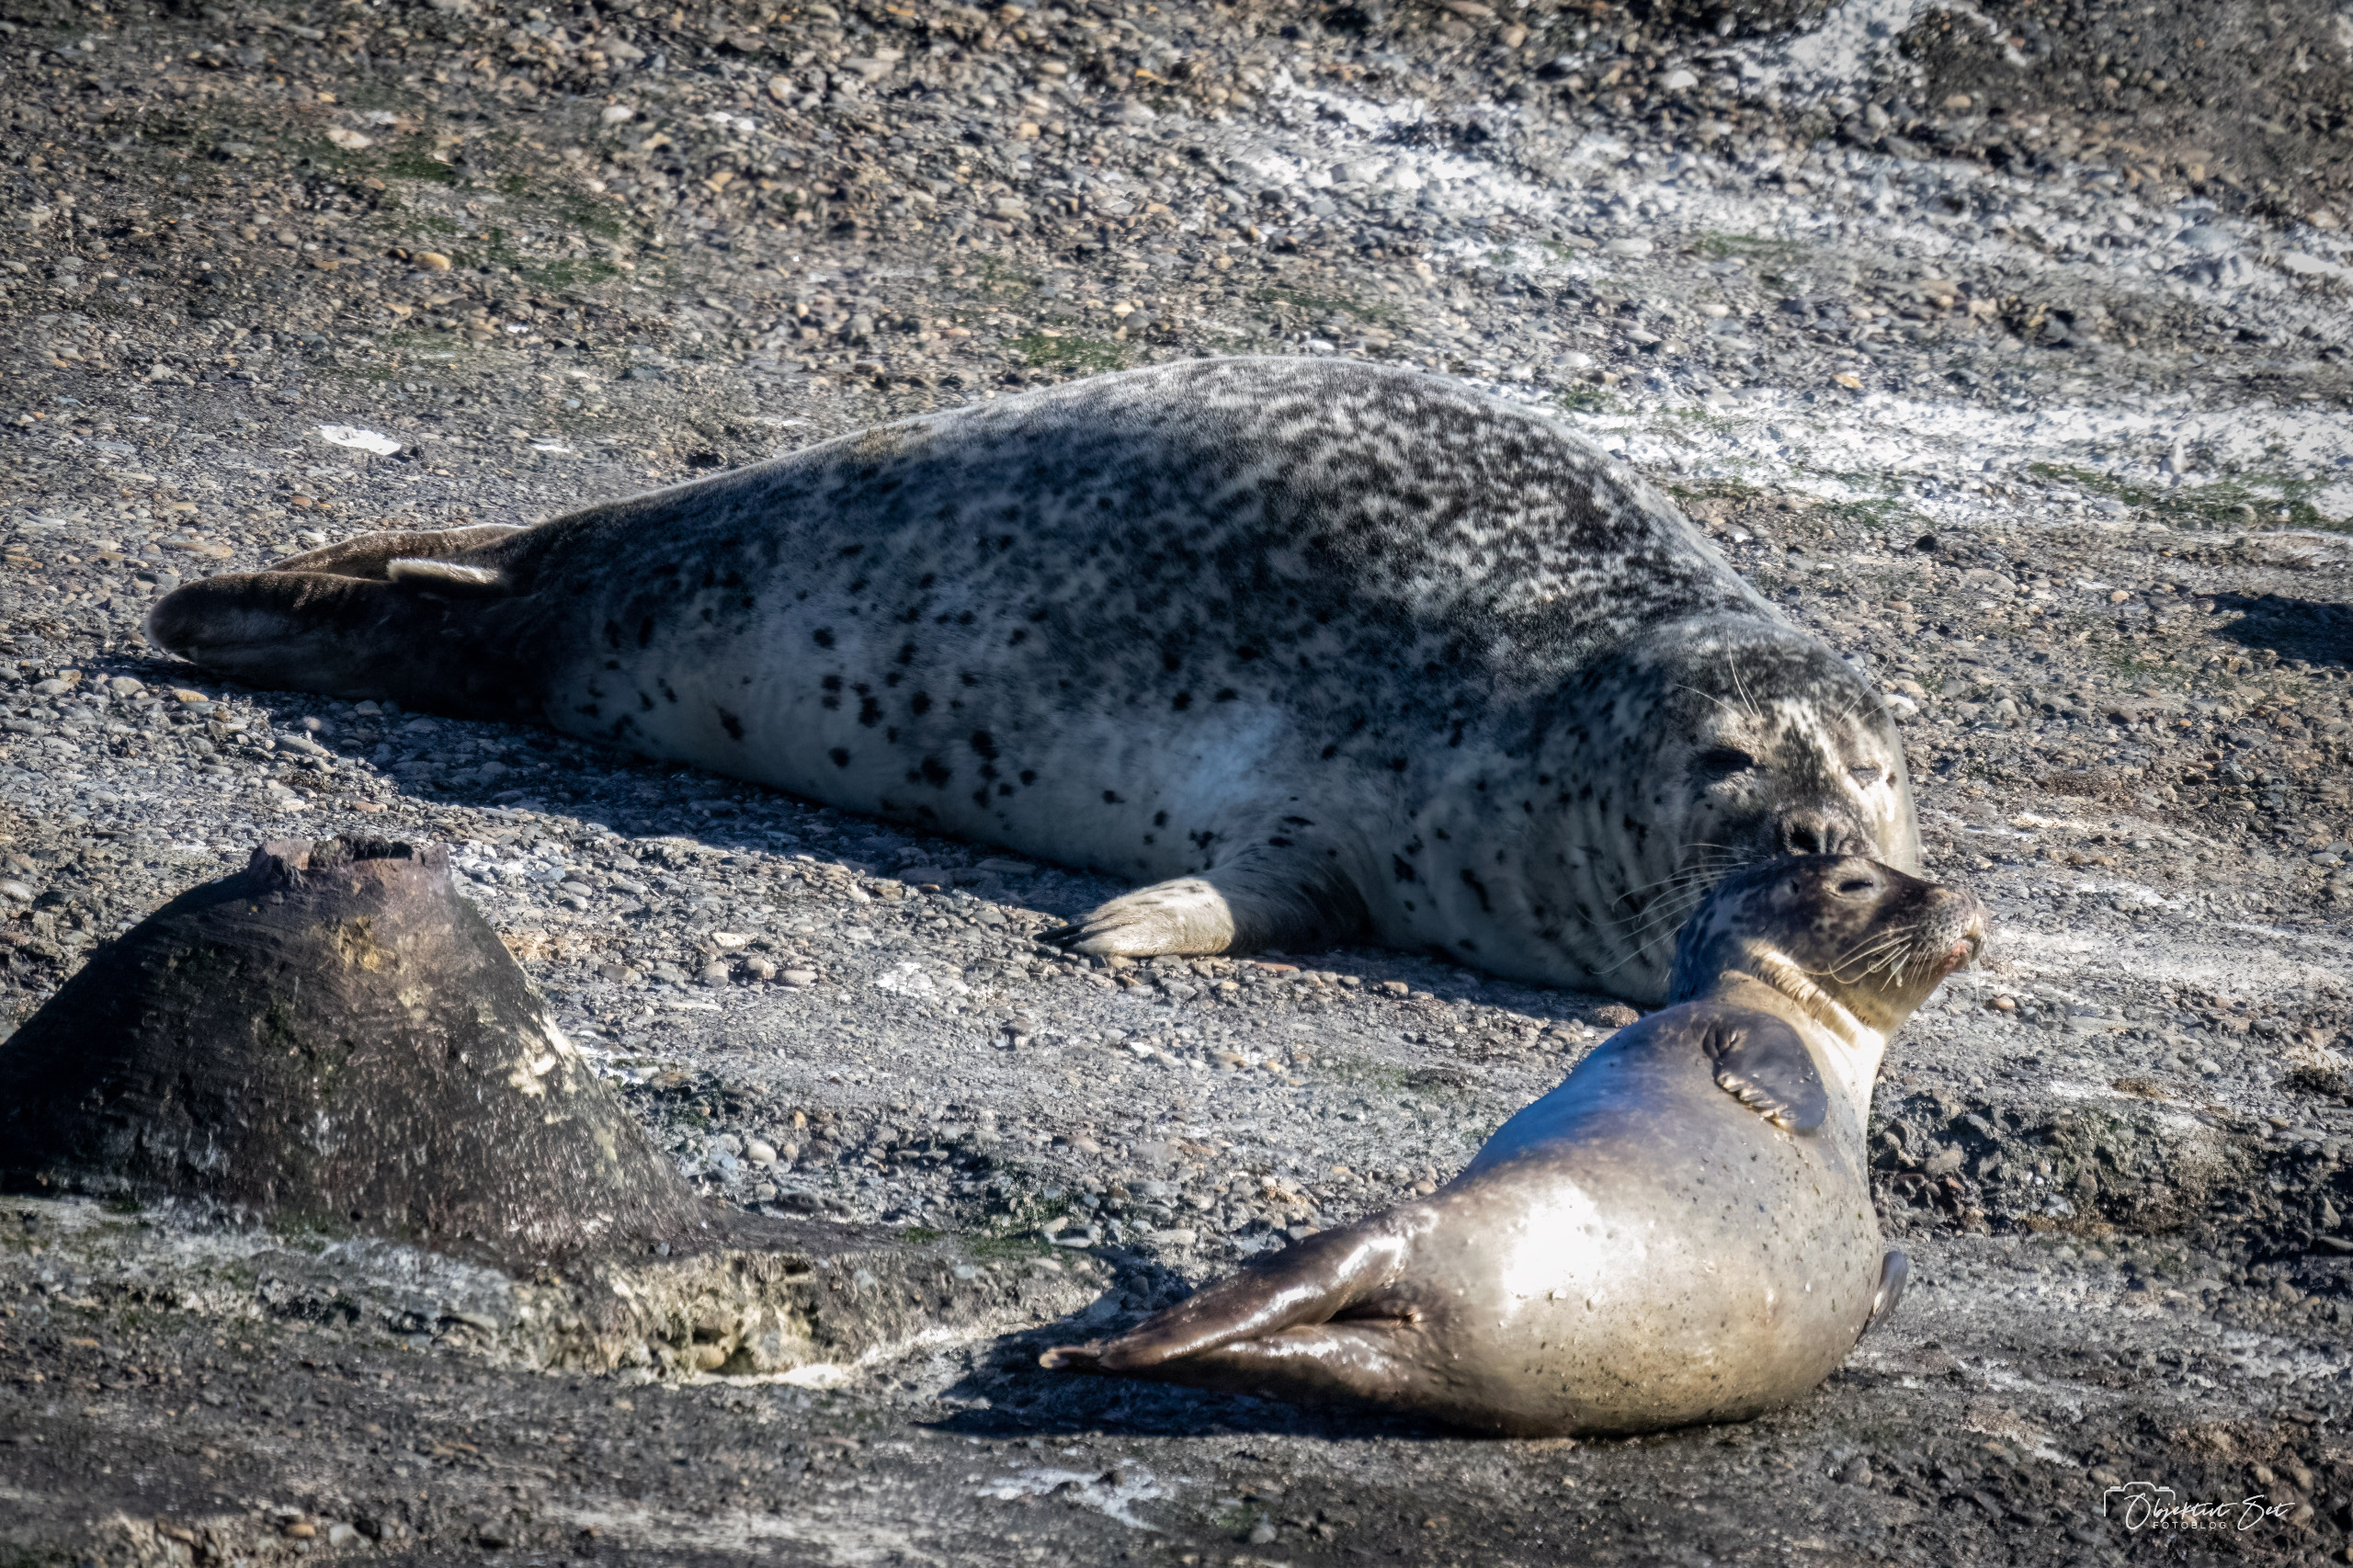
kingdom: Animalia
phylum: Chordata
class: Mammalia
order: Carnivora
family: Phocidae
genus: Phoca
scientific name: Phoca vitulina
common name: Spættet sæl
